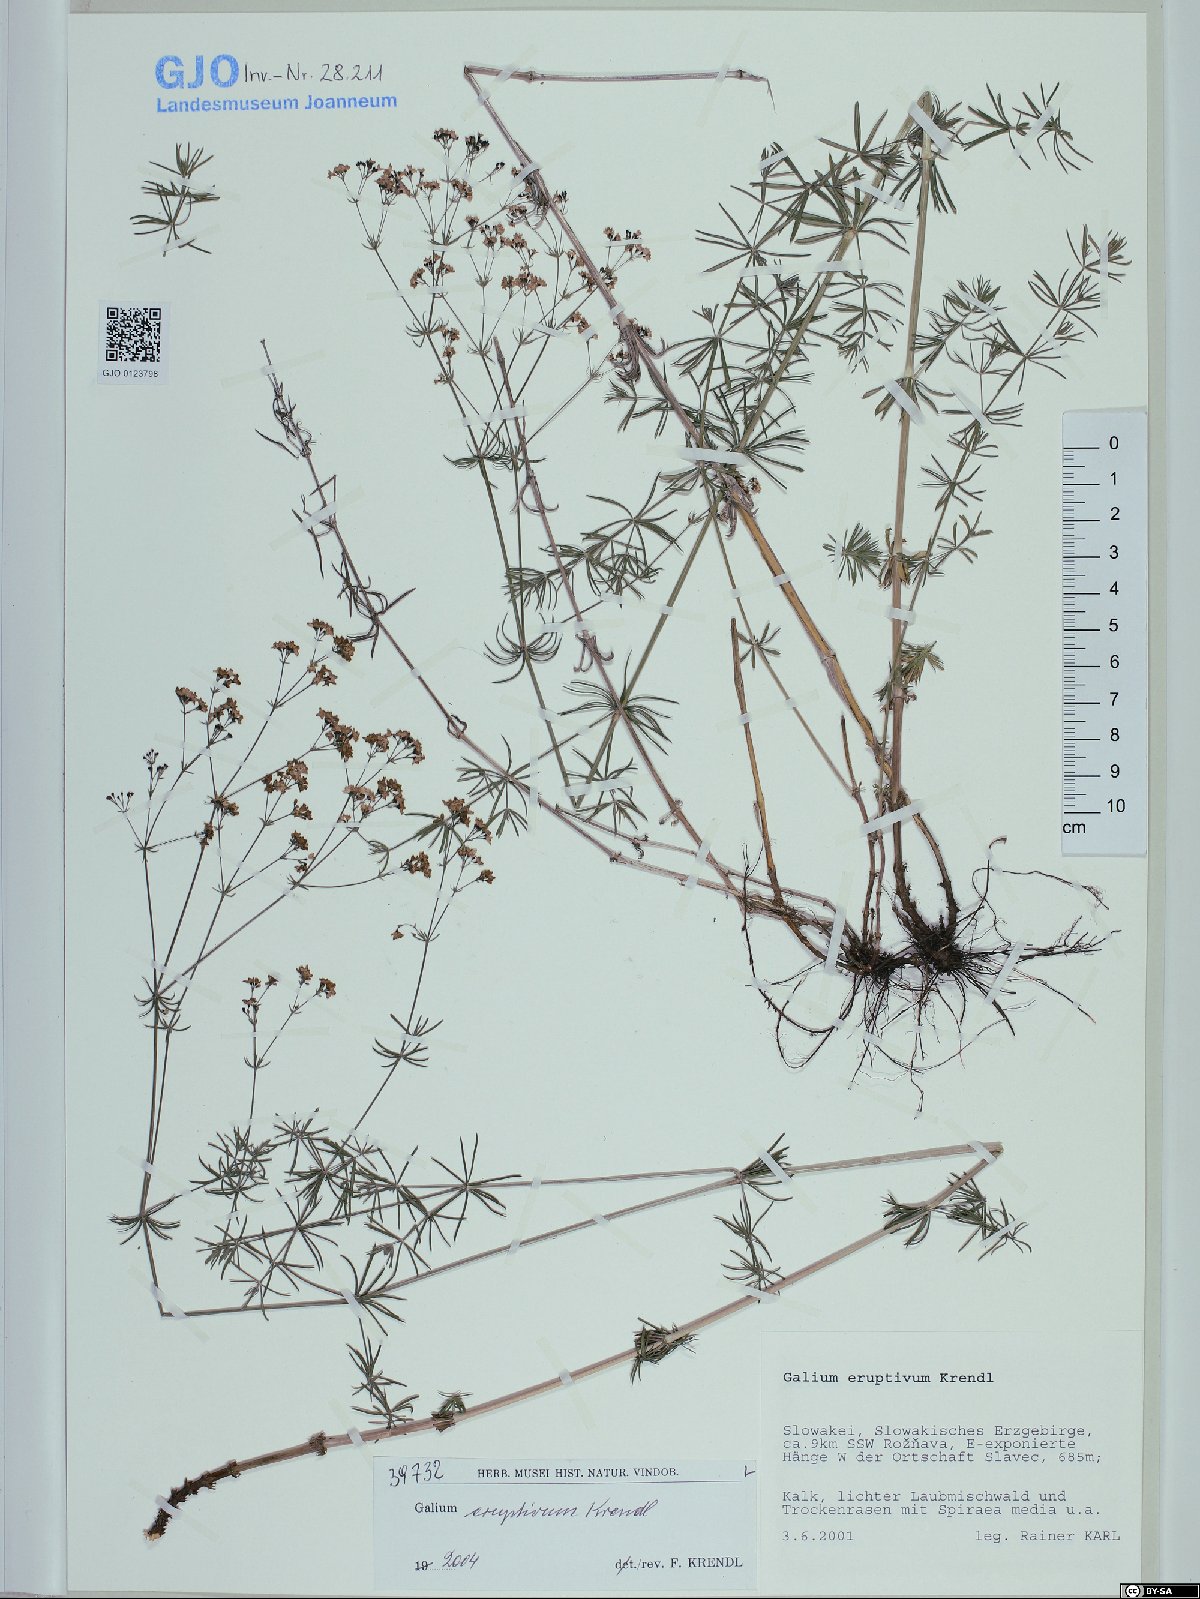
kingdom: Plantae
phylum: Tracheophyta
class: Magnoliopsida
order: Gentianales
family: Rubiaceae
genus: Galium
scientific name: Galium eruptivum
